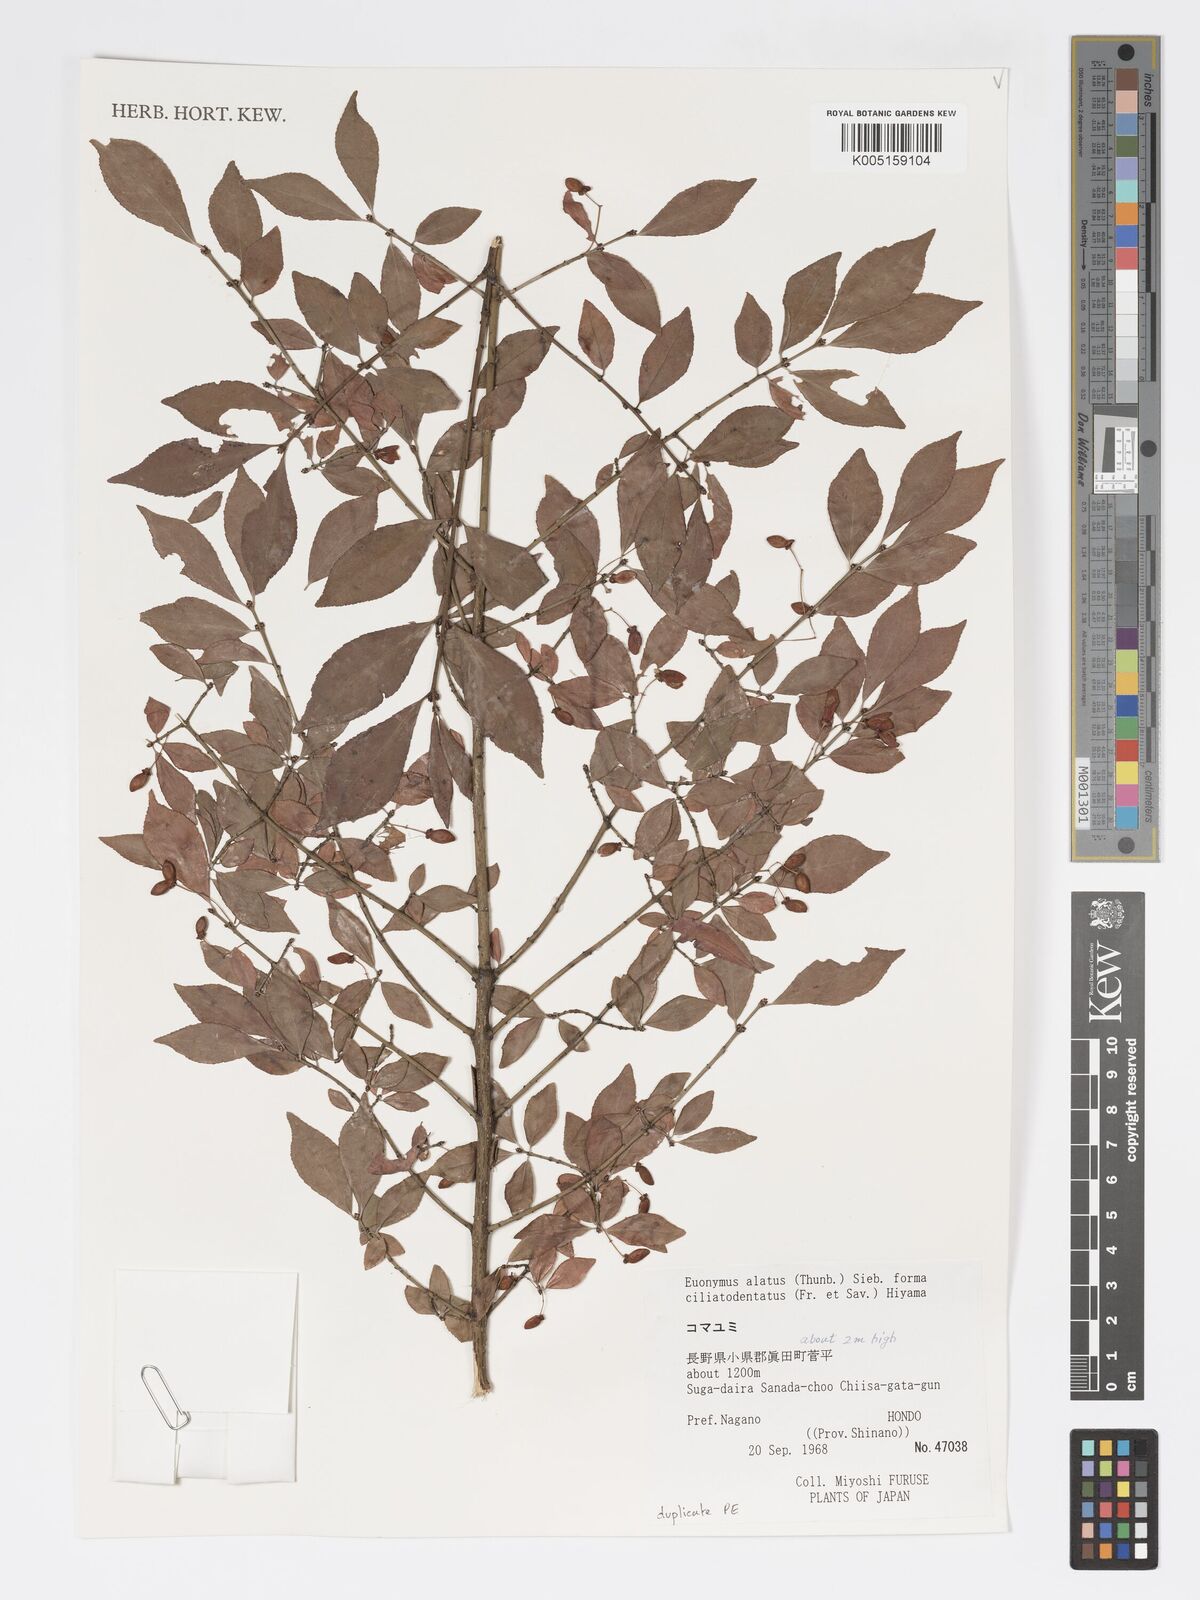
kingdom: Plantae
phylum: Tracheophyta
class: Magnoliopsida
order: Celastrales
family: Celastraceae
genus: Euonymus
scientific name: Euonymus
